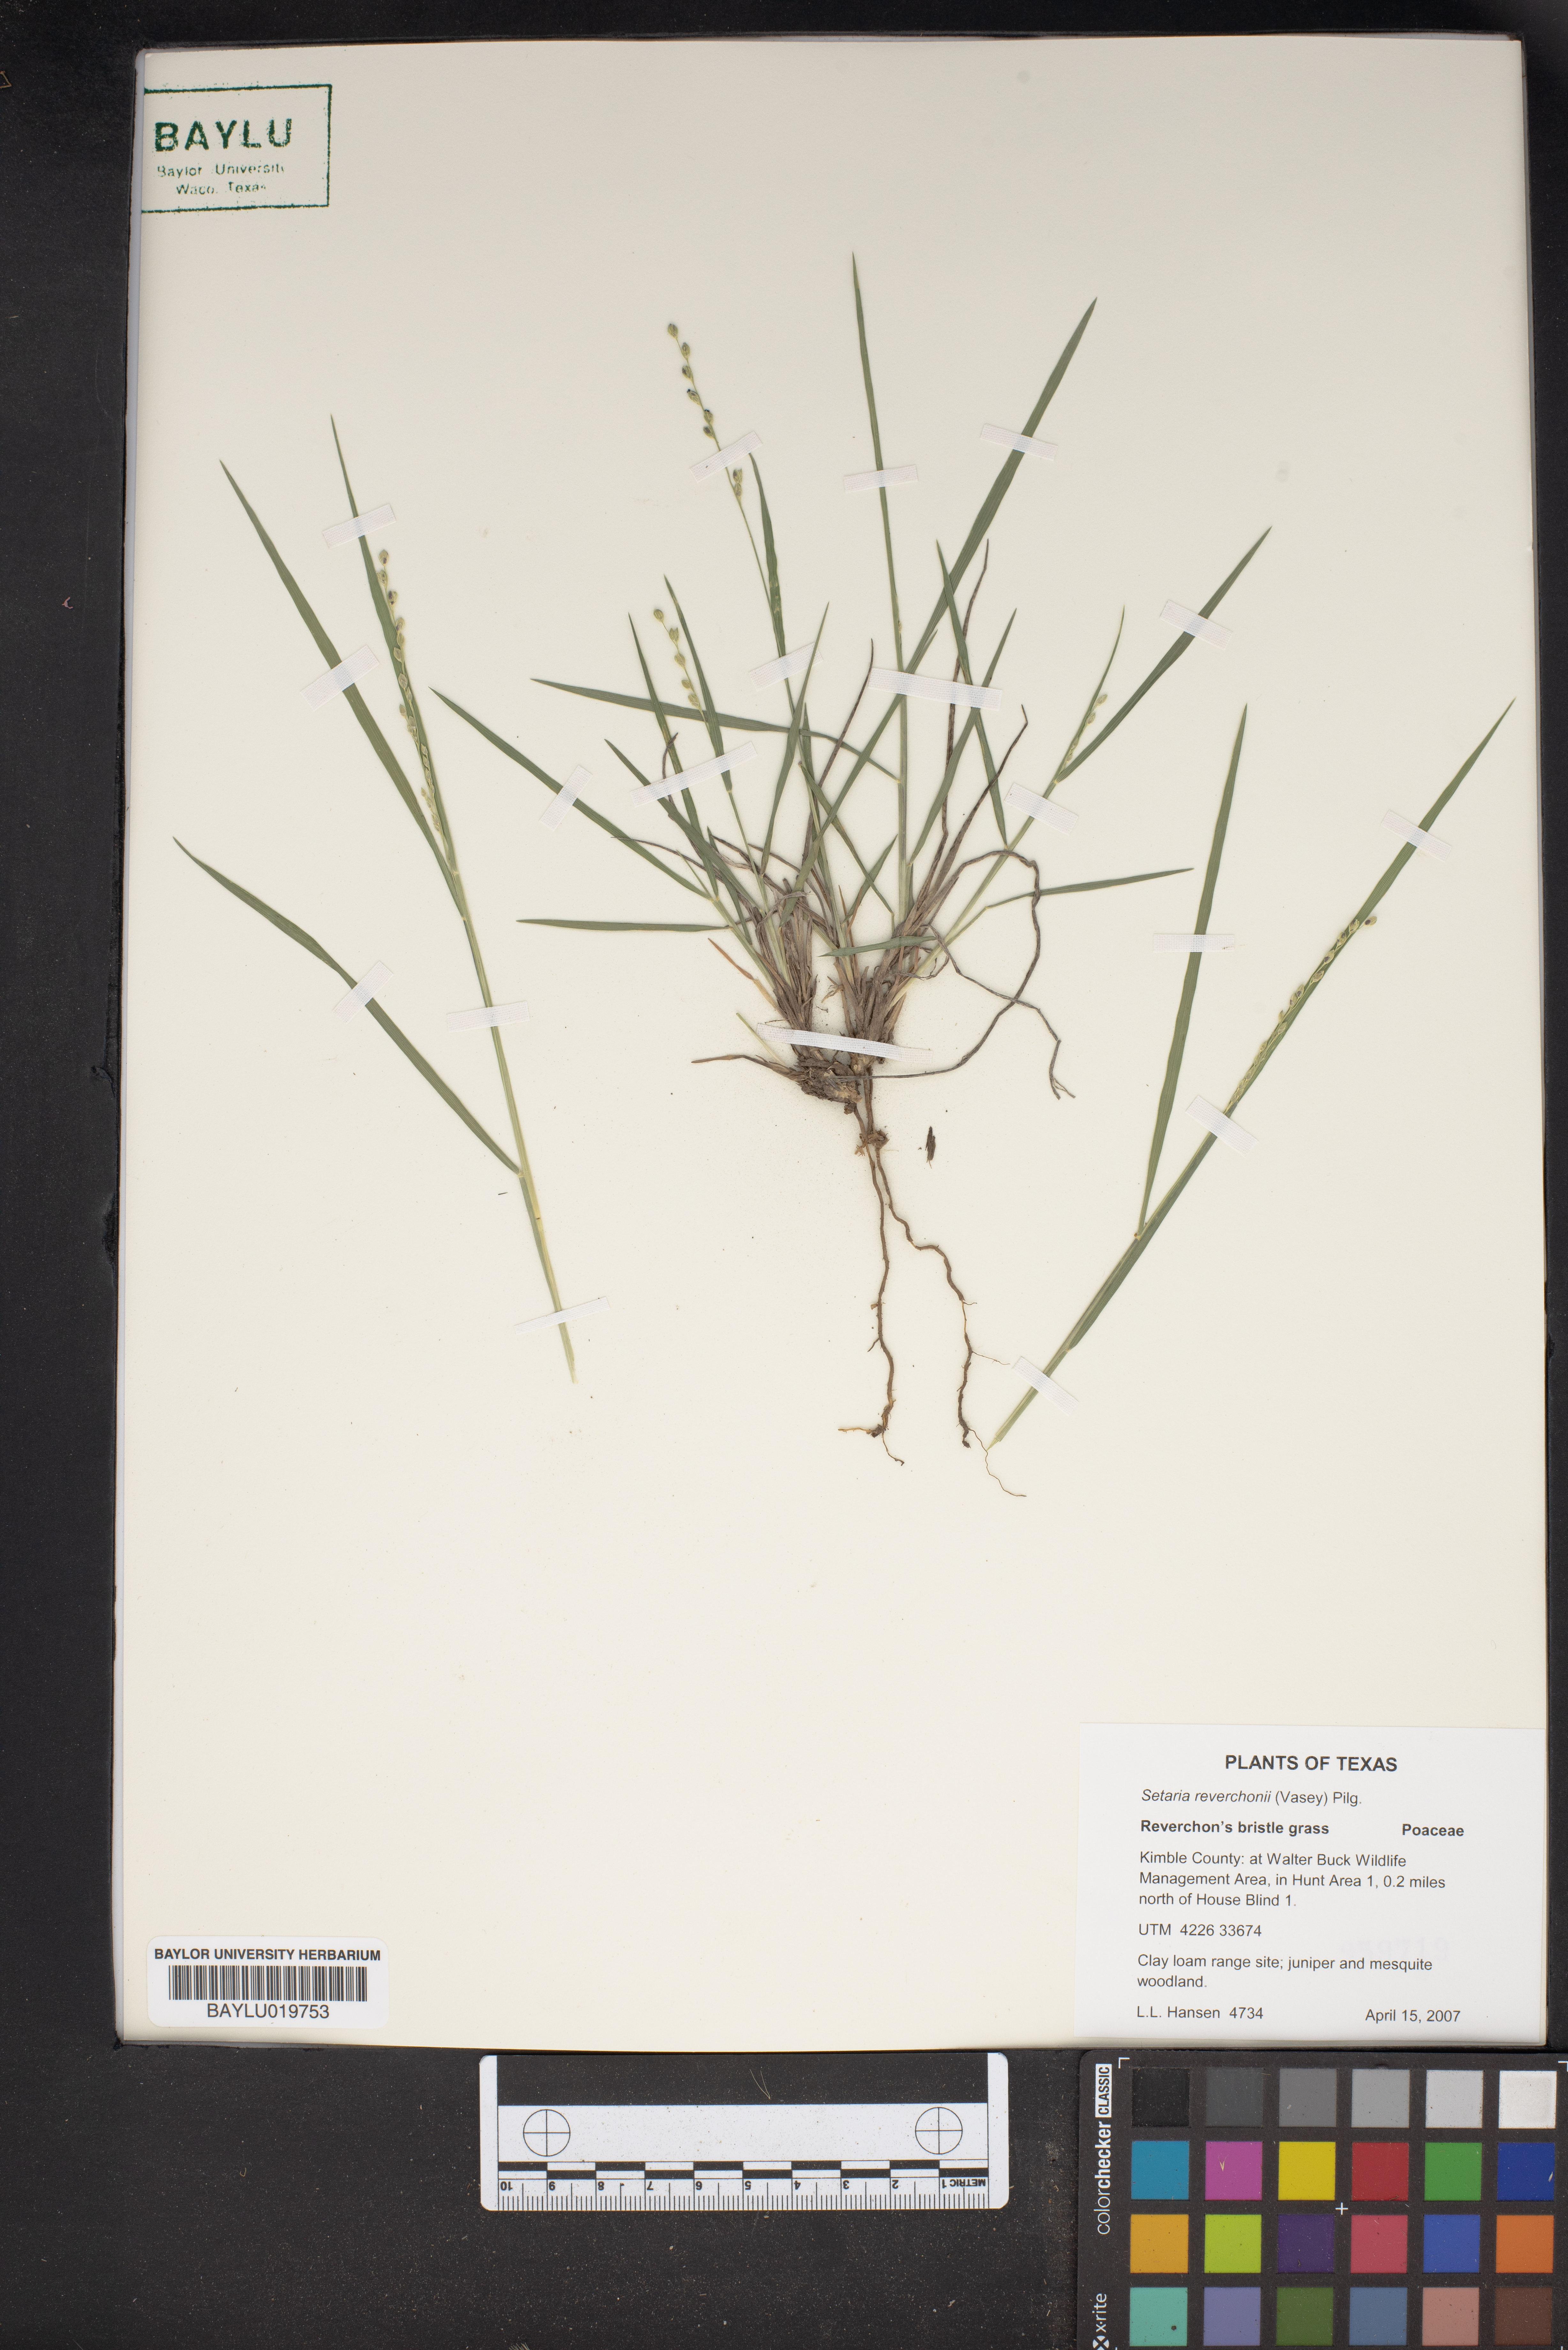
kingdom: Plantae
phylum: Tracheophyta
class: Liliopsida
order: Poales
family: Poaceae
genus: Setaria
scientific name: Setaria reverchonii
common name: Reverchon's bristle grass
